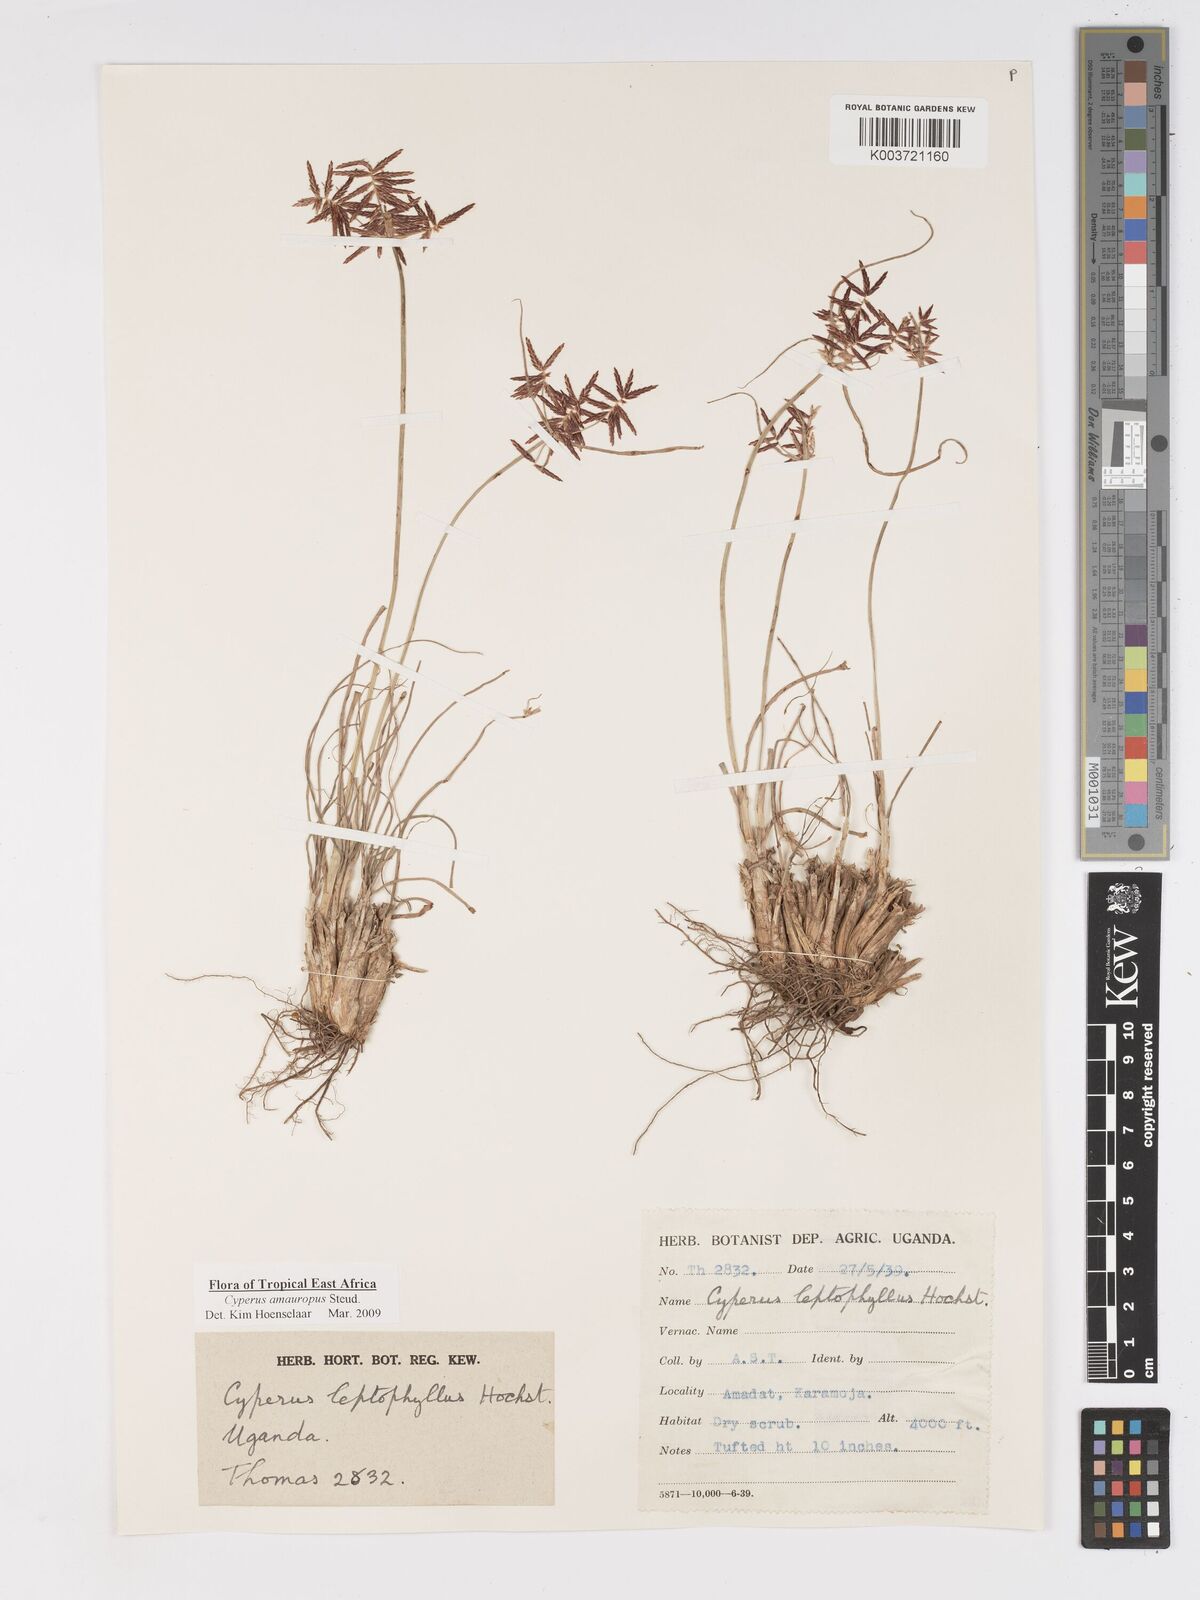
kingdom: Plantae
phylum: Tracheophyta
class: Liliopsida
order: Poales
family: Cyperaceae
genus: Cyperus
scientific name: Cyperus amauropus
